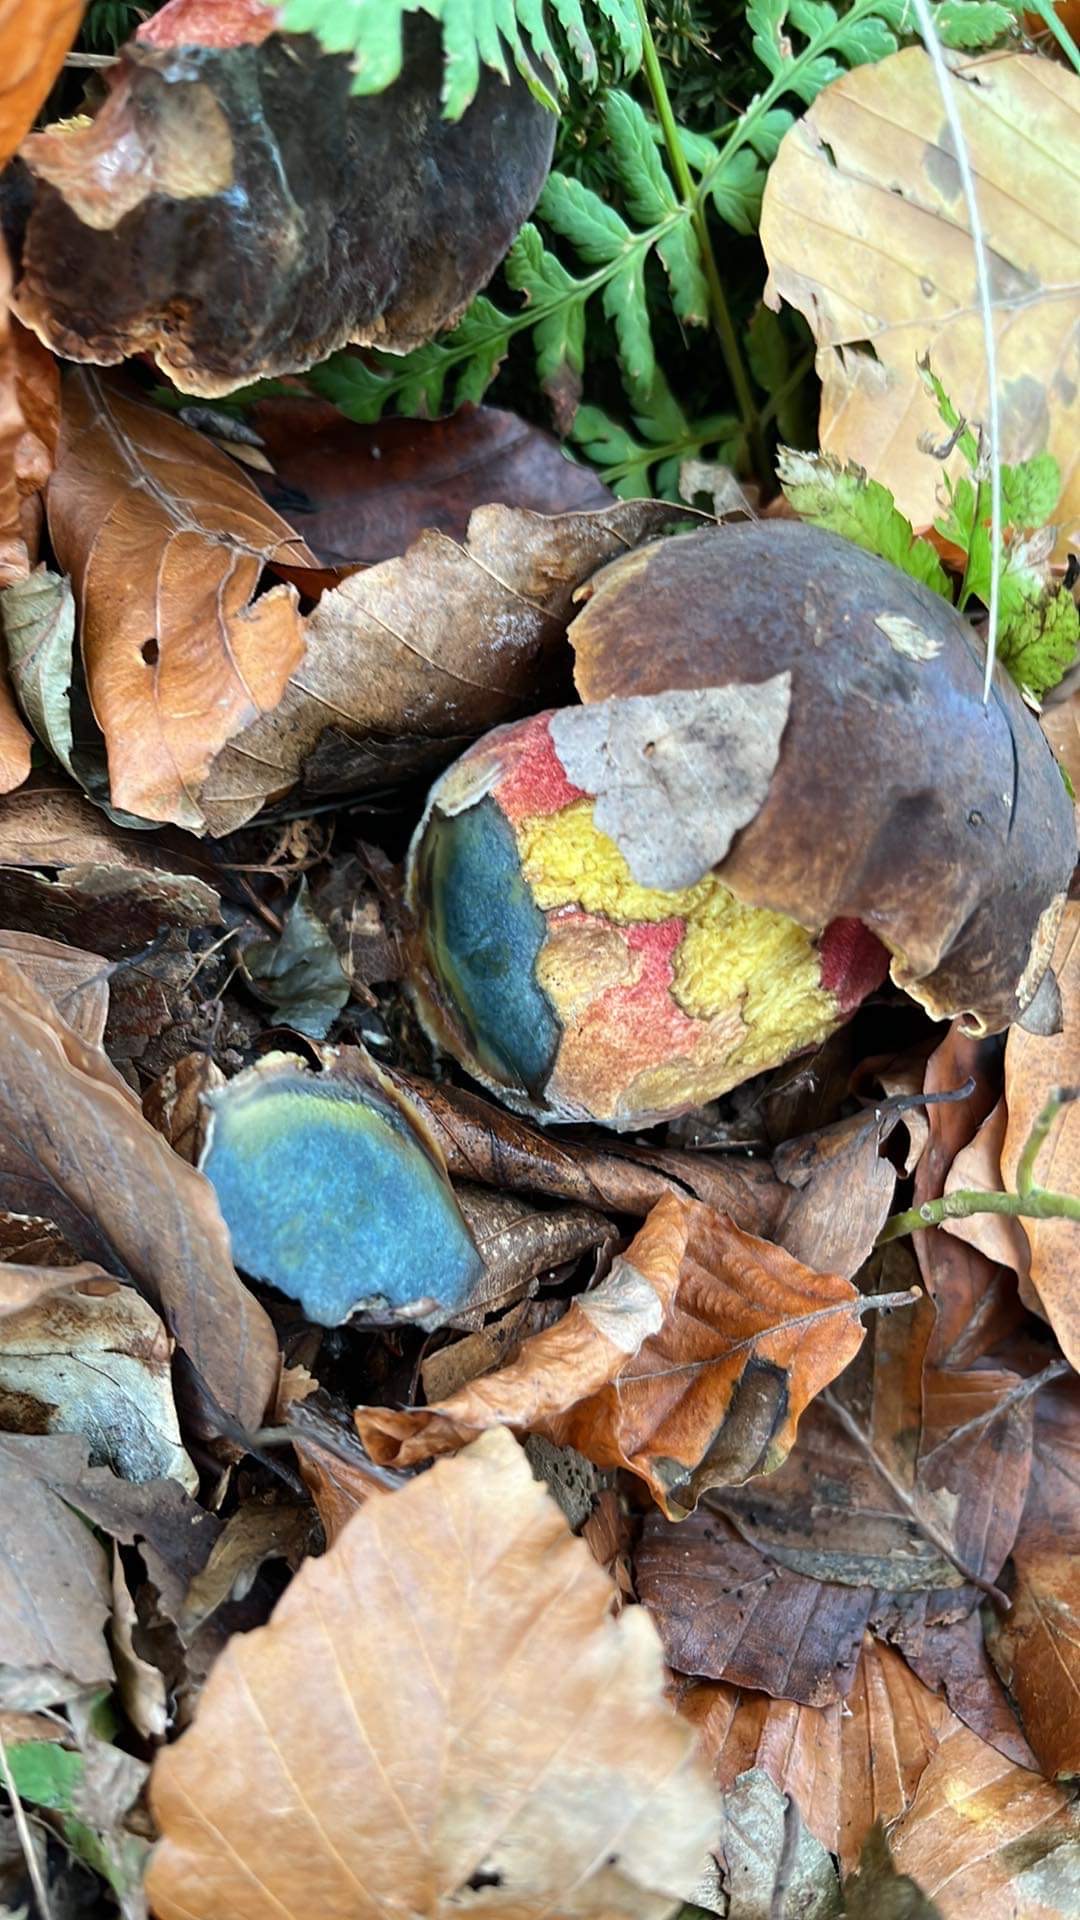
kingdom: Fungi
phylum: Basidiomycota
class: Agaricomycetes
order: Boletales
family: Boletaceae
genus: Neoboletus
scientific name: Neoboletus erythropus
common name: punktstokket indigorørhat
